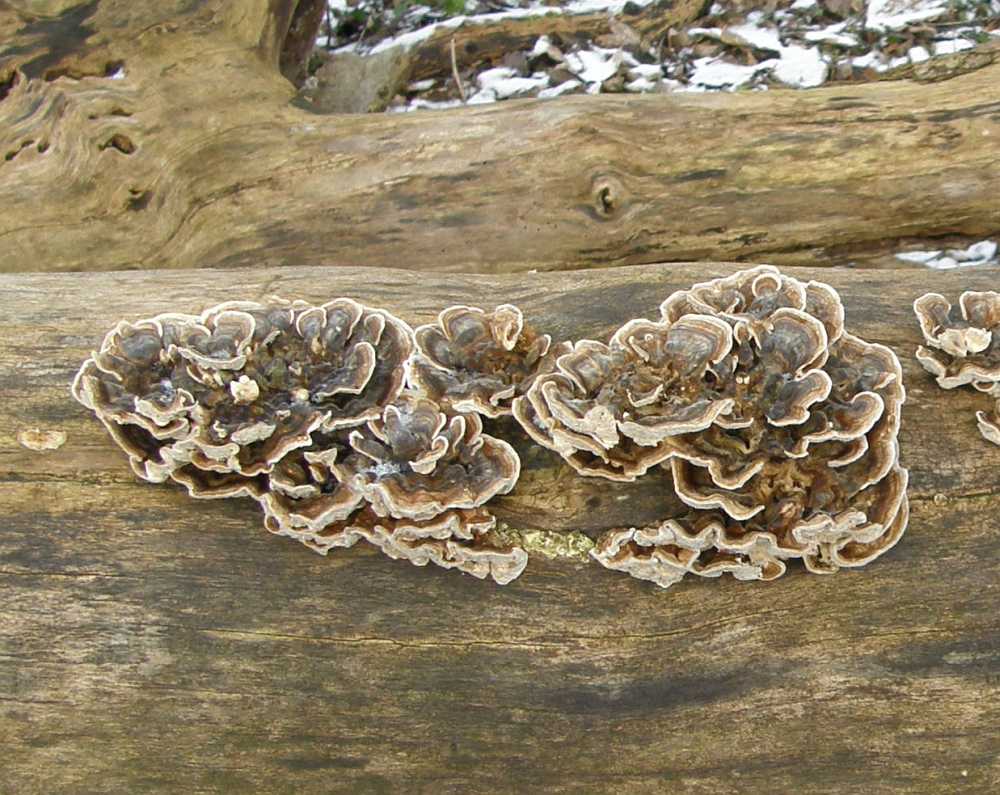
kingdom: Fungi
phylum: Basidiomycota
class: Agaricomycetes
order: Polyporales
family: Polyporaceae
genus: Trametes
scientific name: Trametes versicolor
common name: broget læderporesvamp
